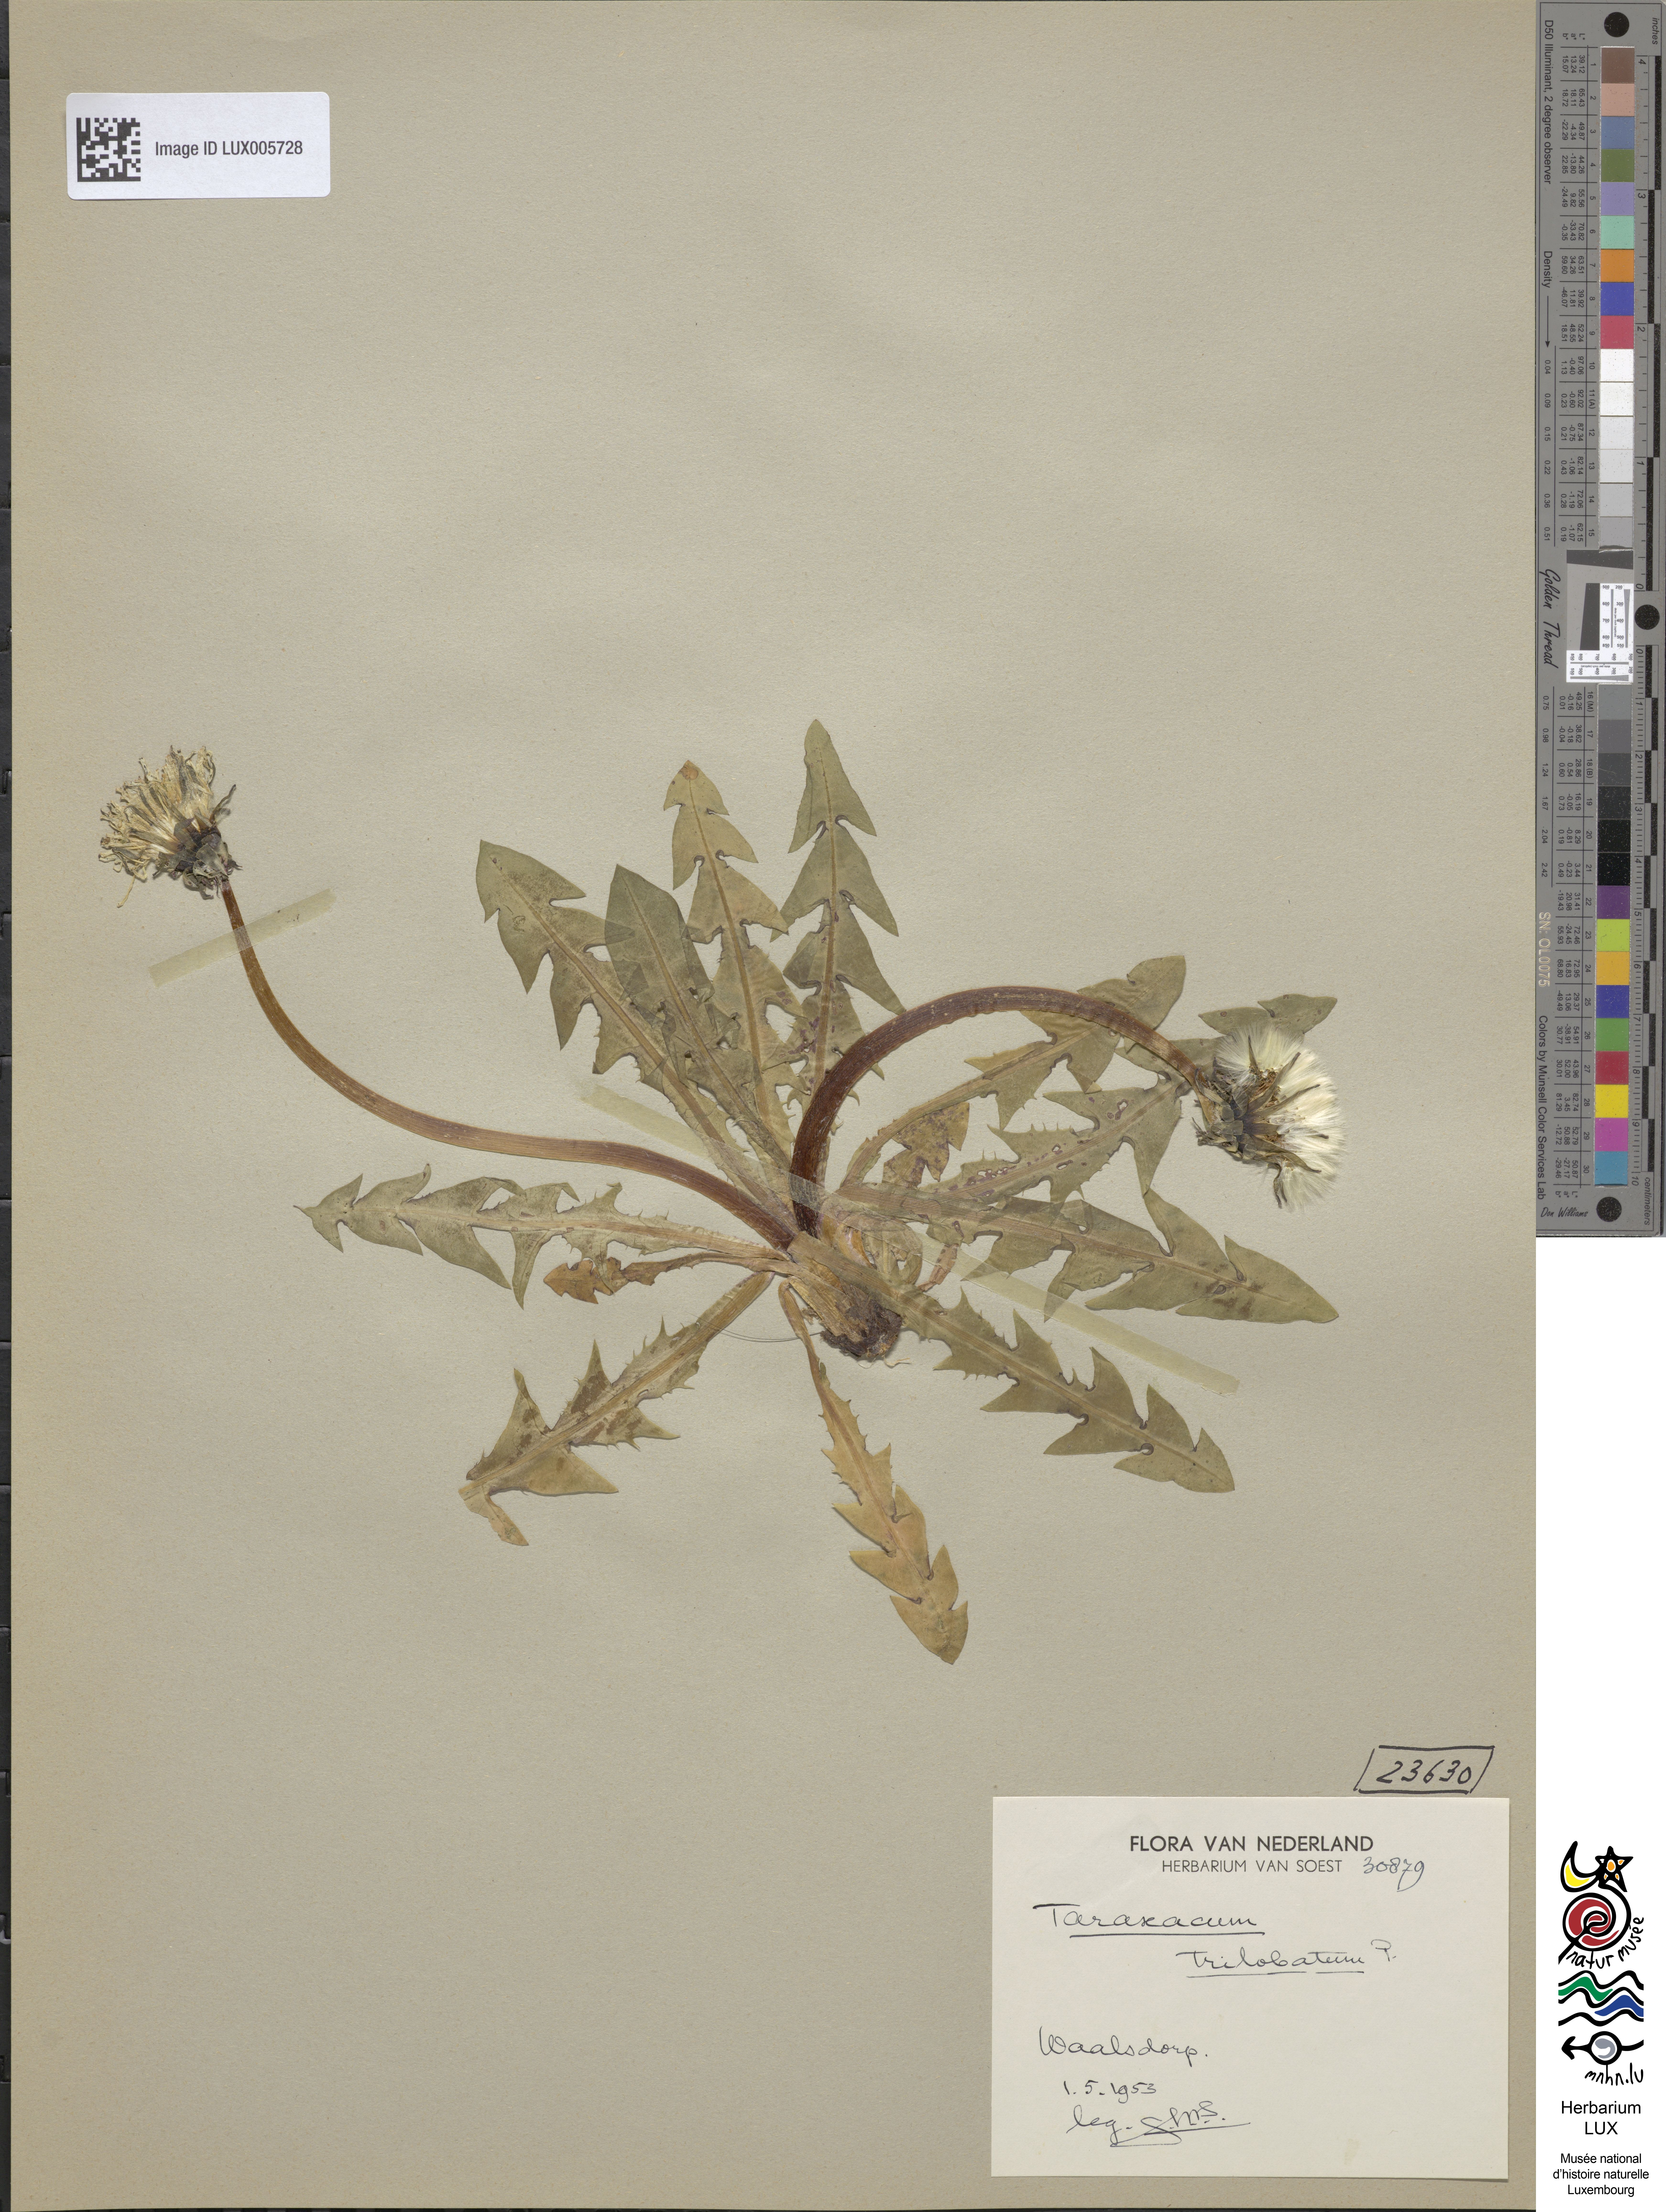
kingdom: Plantae
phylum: Tracheophyta
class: Magnoliopsida
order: Asterales
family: Asteraceae
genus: Taraxacum
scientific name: Taraxacum trilobatum
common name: Three-lobed dandelion
